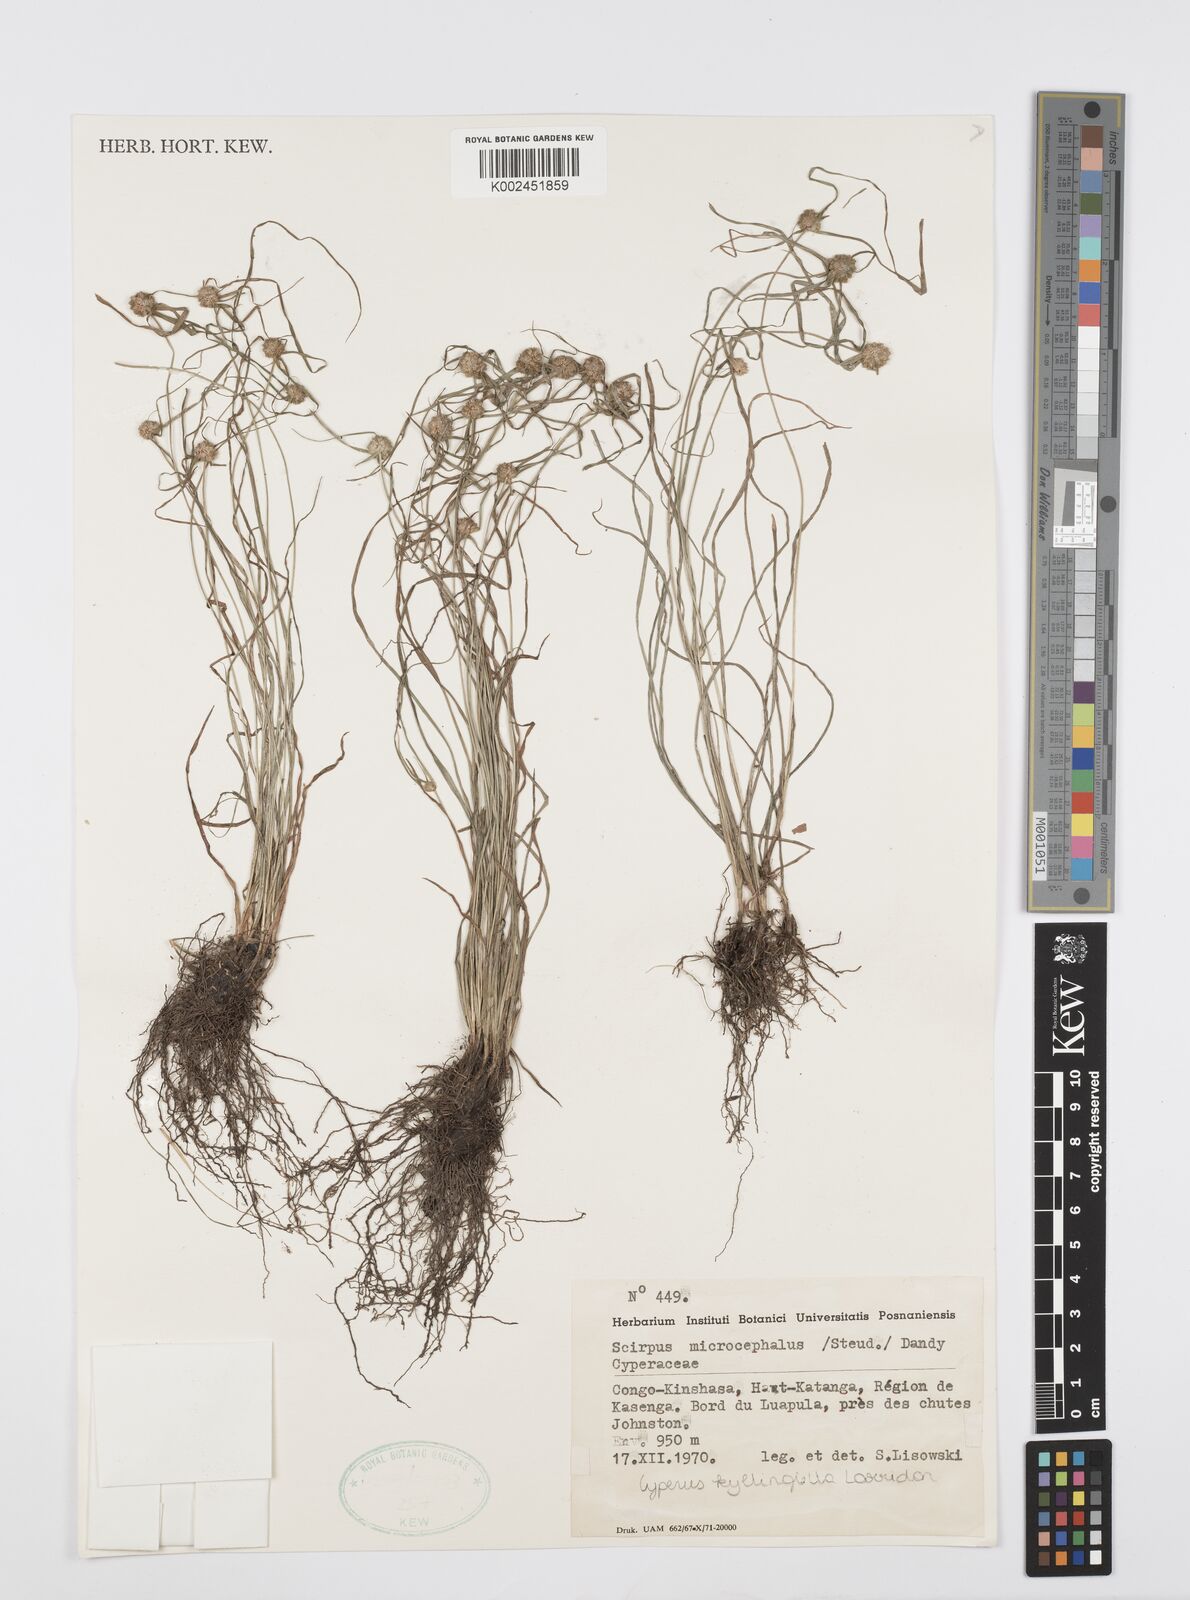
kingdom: Plantae
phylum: Tracheophyta
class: Liliopsida
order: Poales
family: Cyperaceae
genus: Cyperus
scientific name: Cyperus microcephalus
